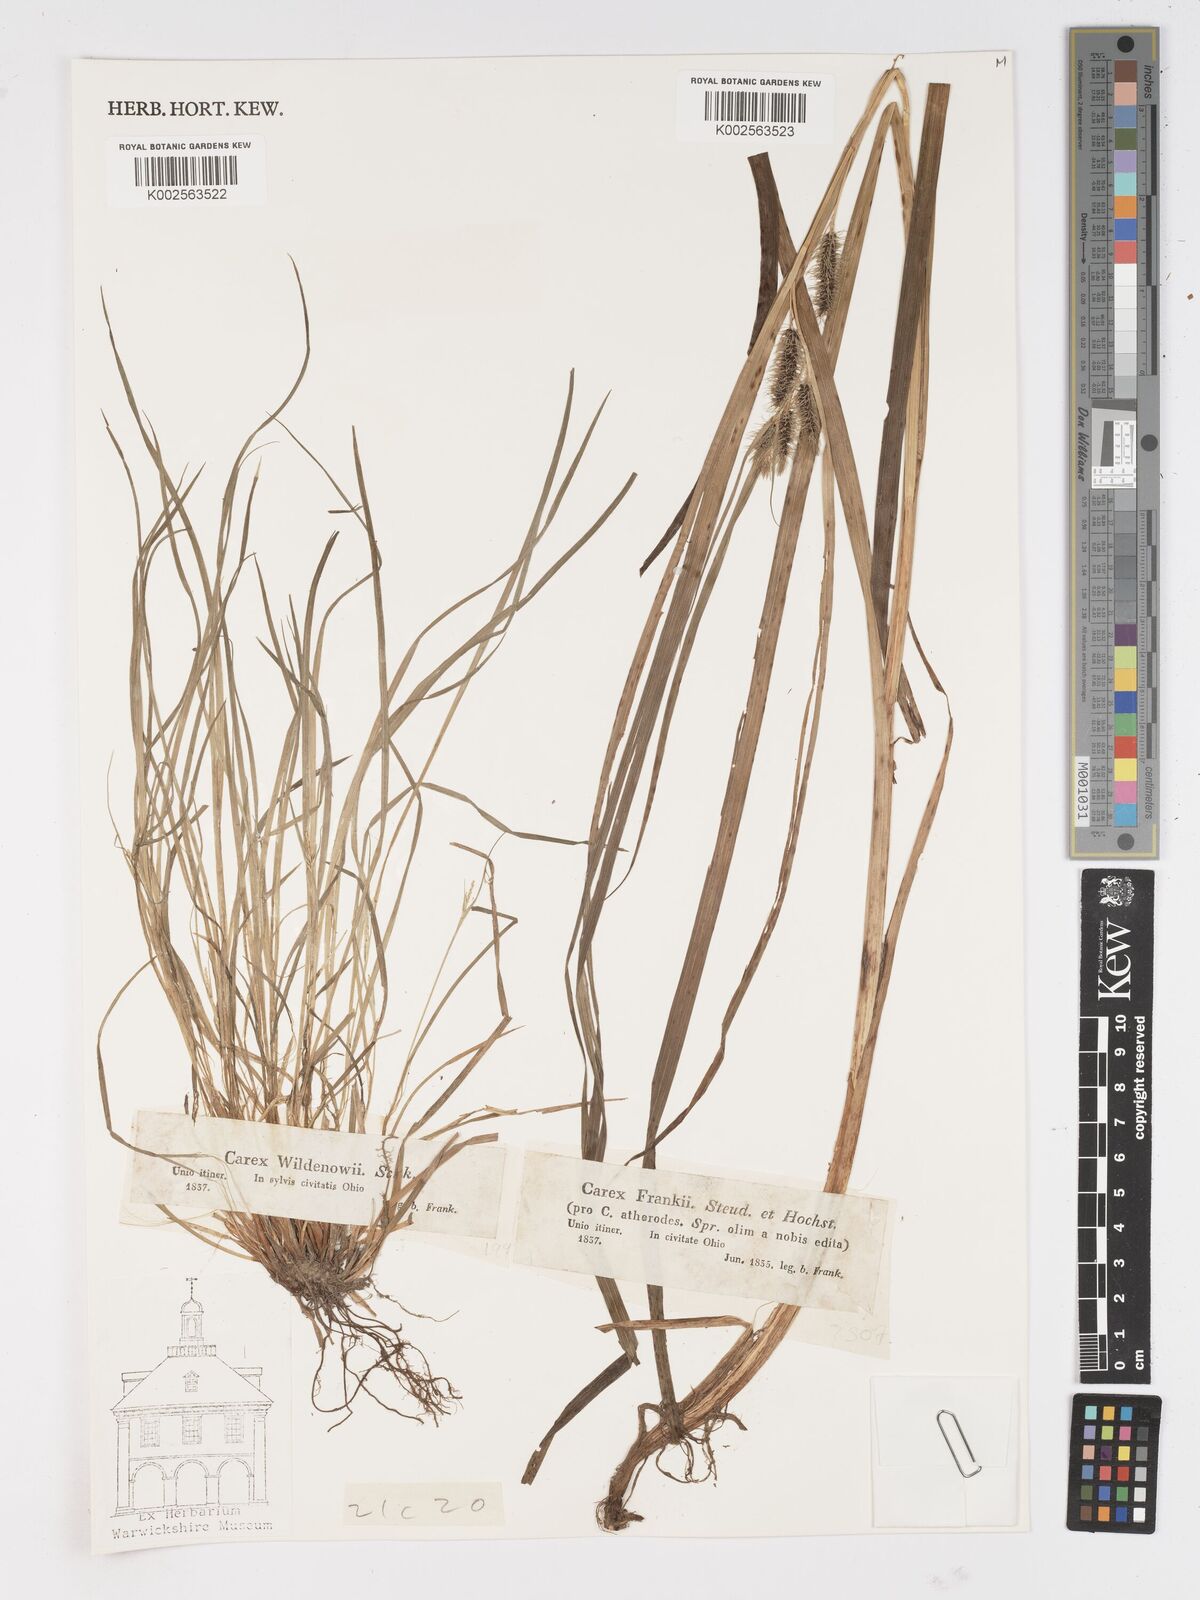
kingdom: Plantae
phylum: Tracheophyta
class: Liliopsida
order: Poales
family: Cyperaceae
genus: Carex
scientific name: Carex frankii
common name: Frank's sedge
